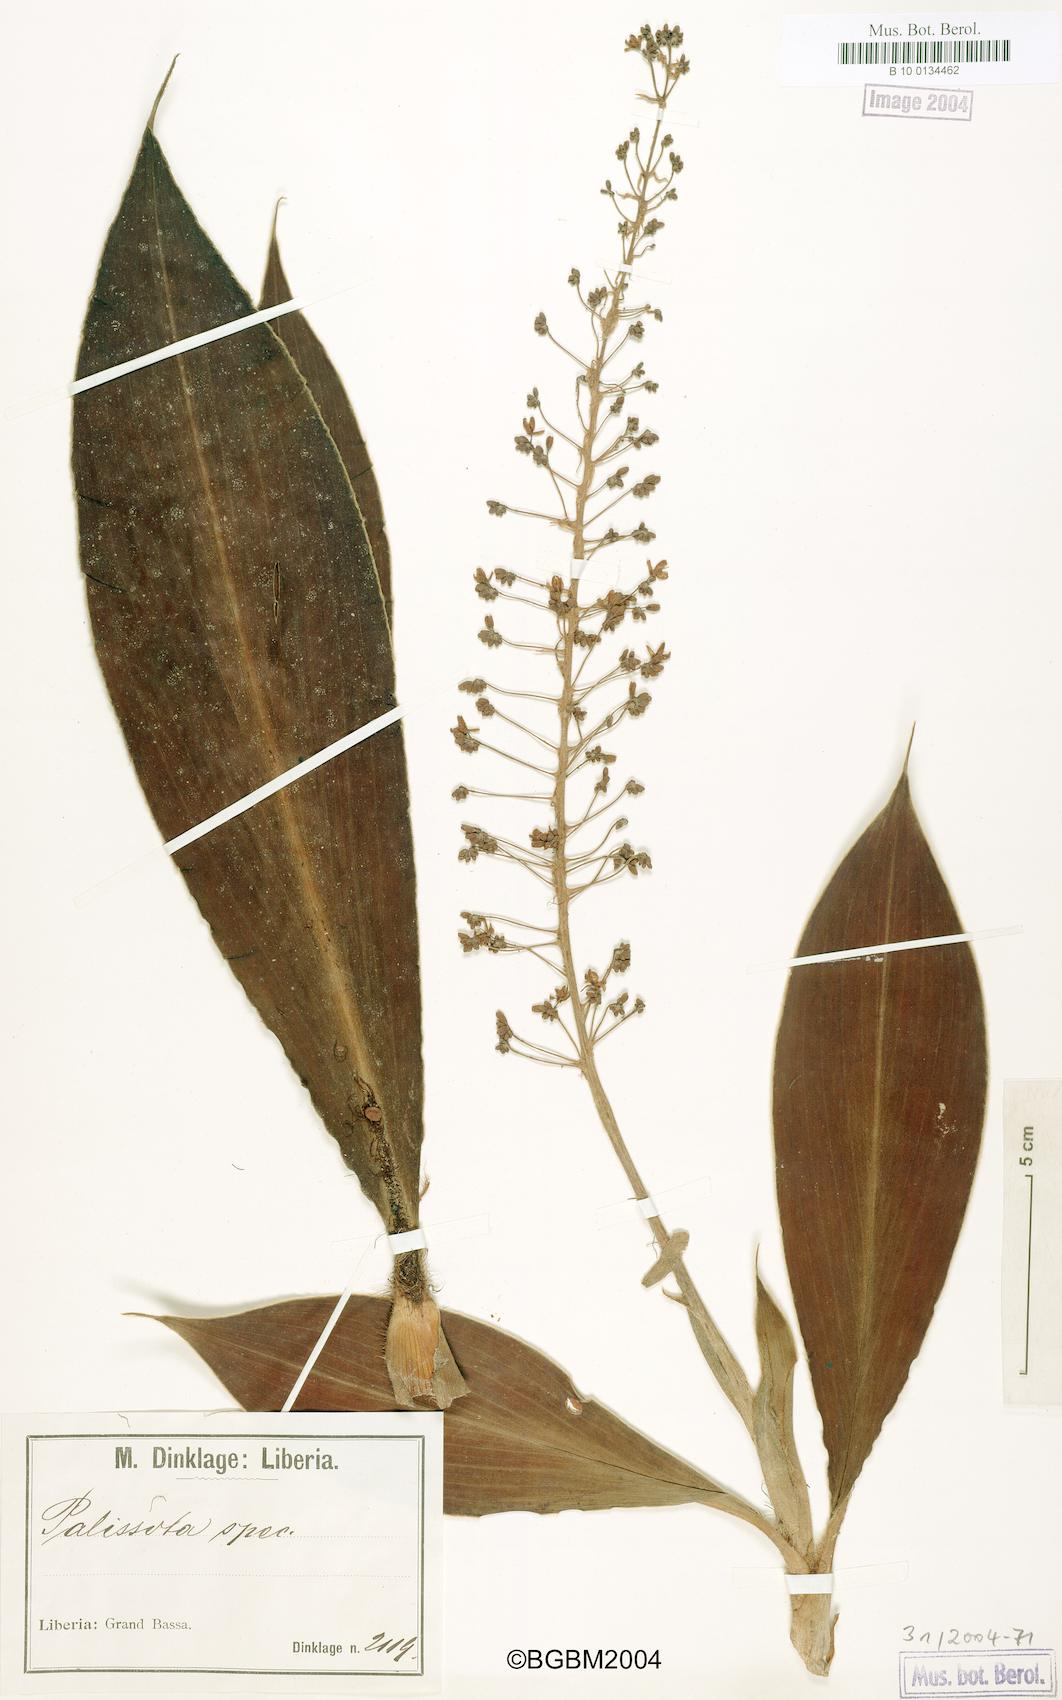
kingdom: Plantae
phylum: Tracheophyta
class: Liliopsida
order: Commelinales
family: Commelinaceae
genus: Palisota
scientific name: Palisota
